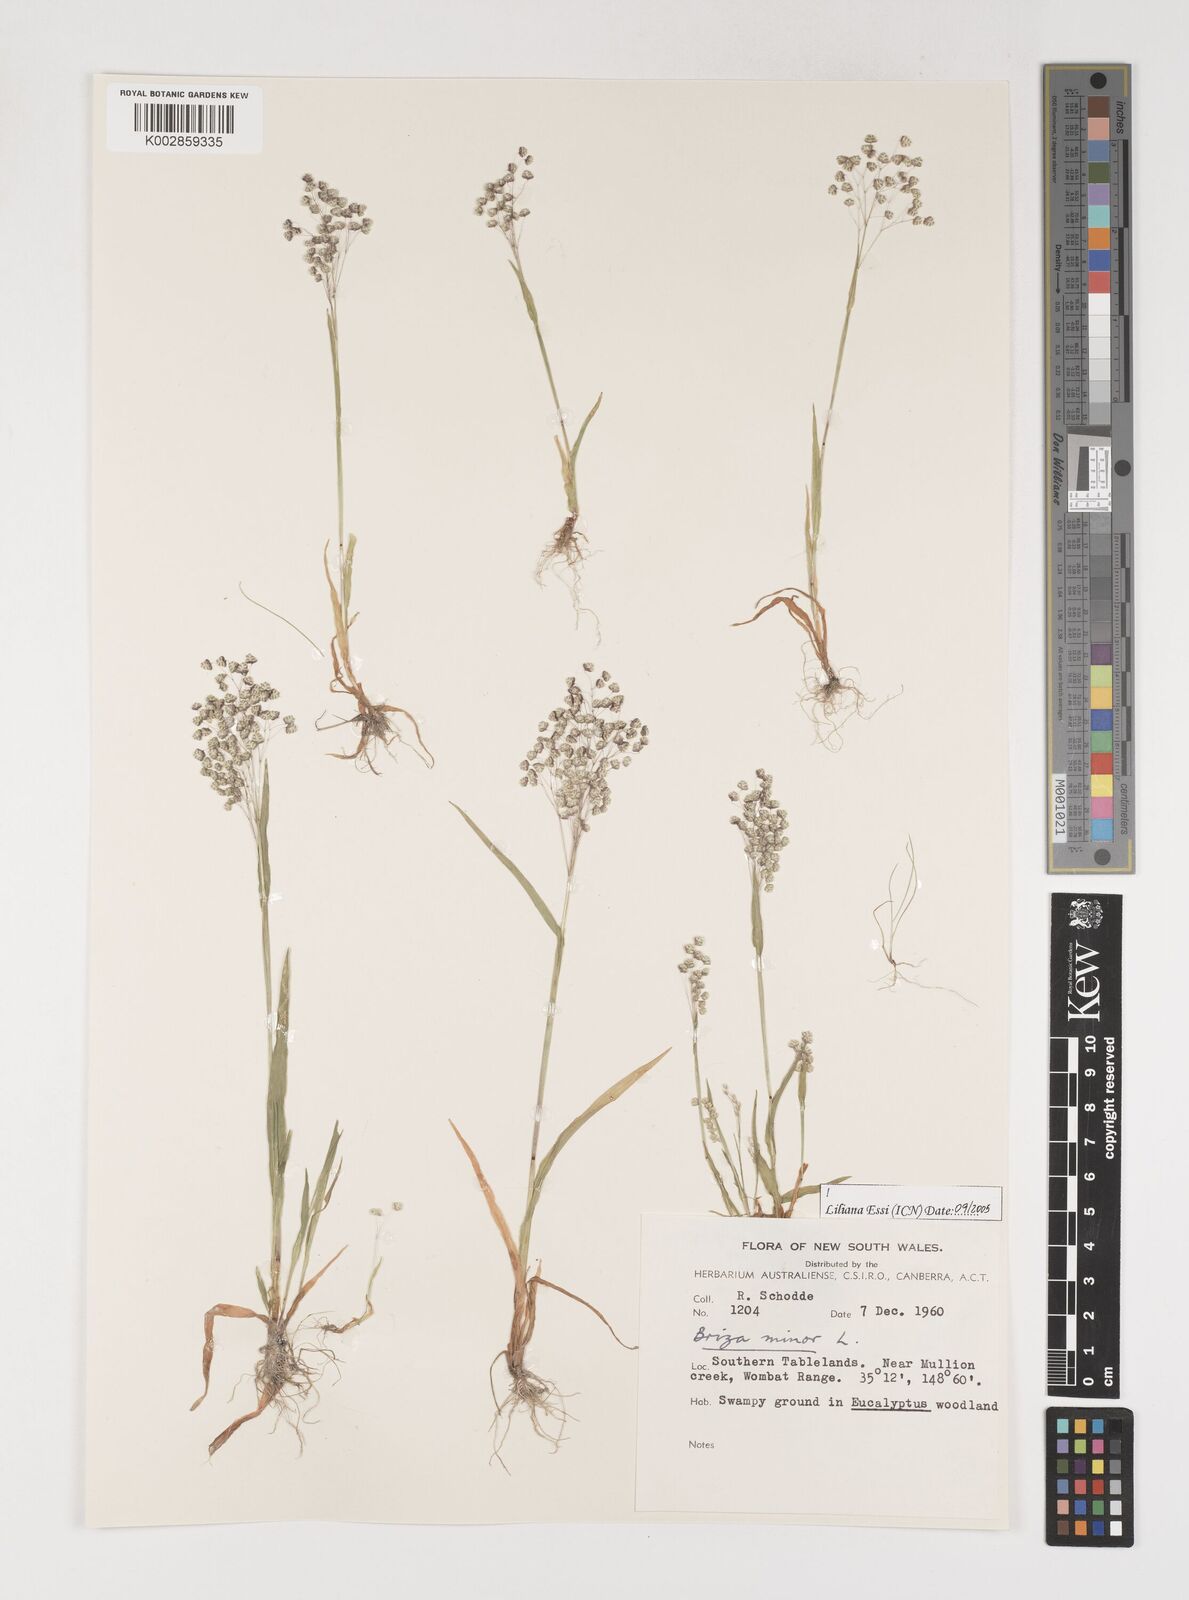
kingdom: Plantae
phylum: Tracheophyta
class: Liliopsida
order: Poales
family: Poaceae
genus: Briza
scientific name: Briza minor
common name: Lesser quaking-grass
